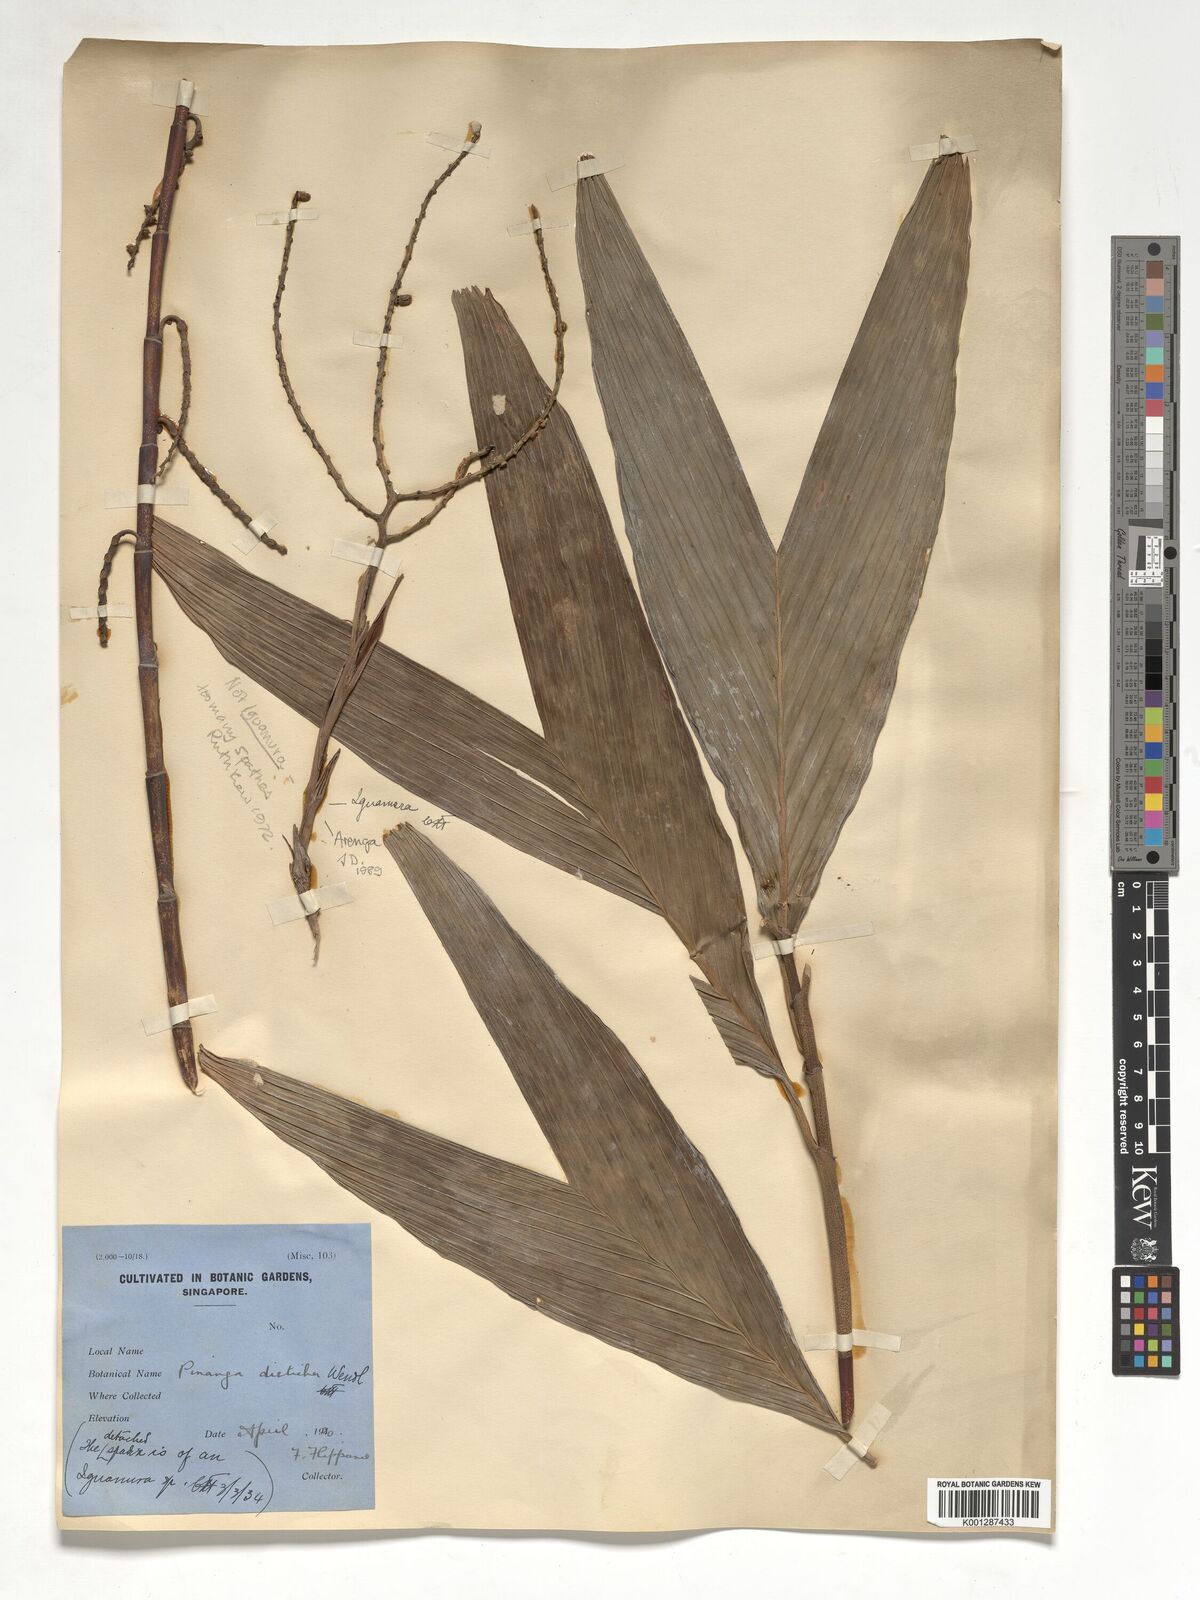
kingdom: Plantae
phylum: Tracheophyta
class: Liliopsida
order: Arecales
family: Arecaceae
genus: Arenga
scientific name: Arenga
